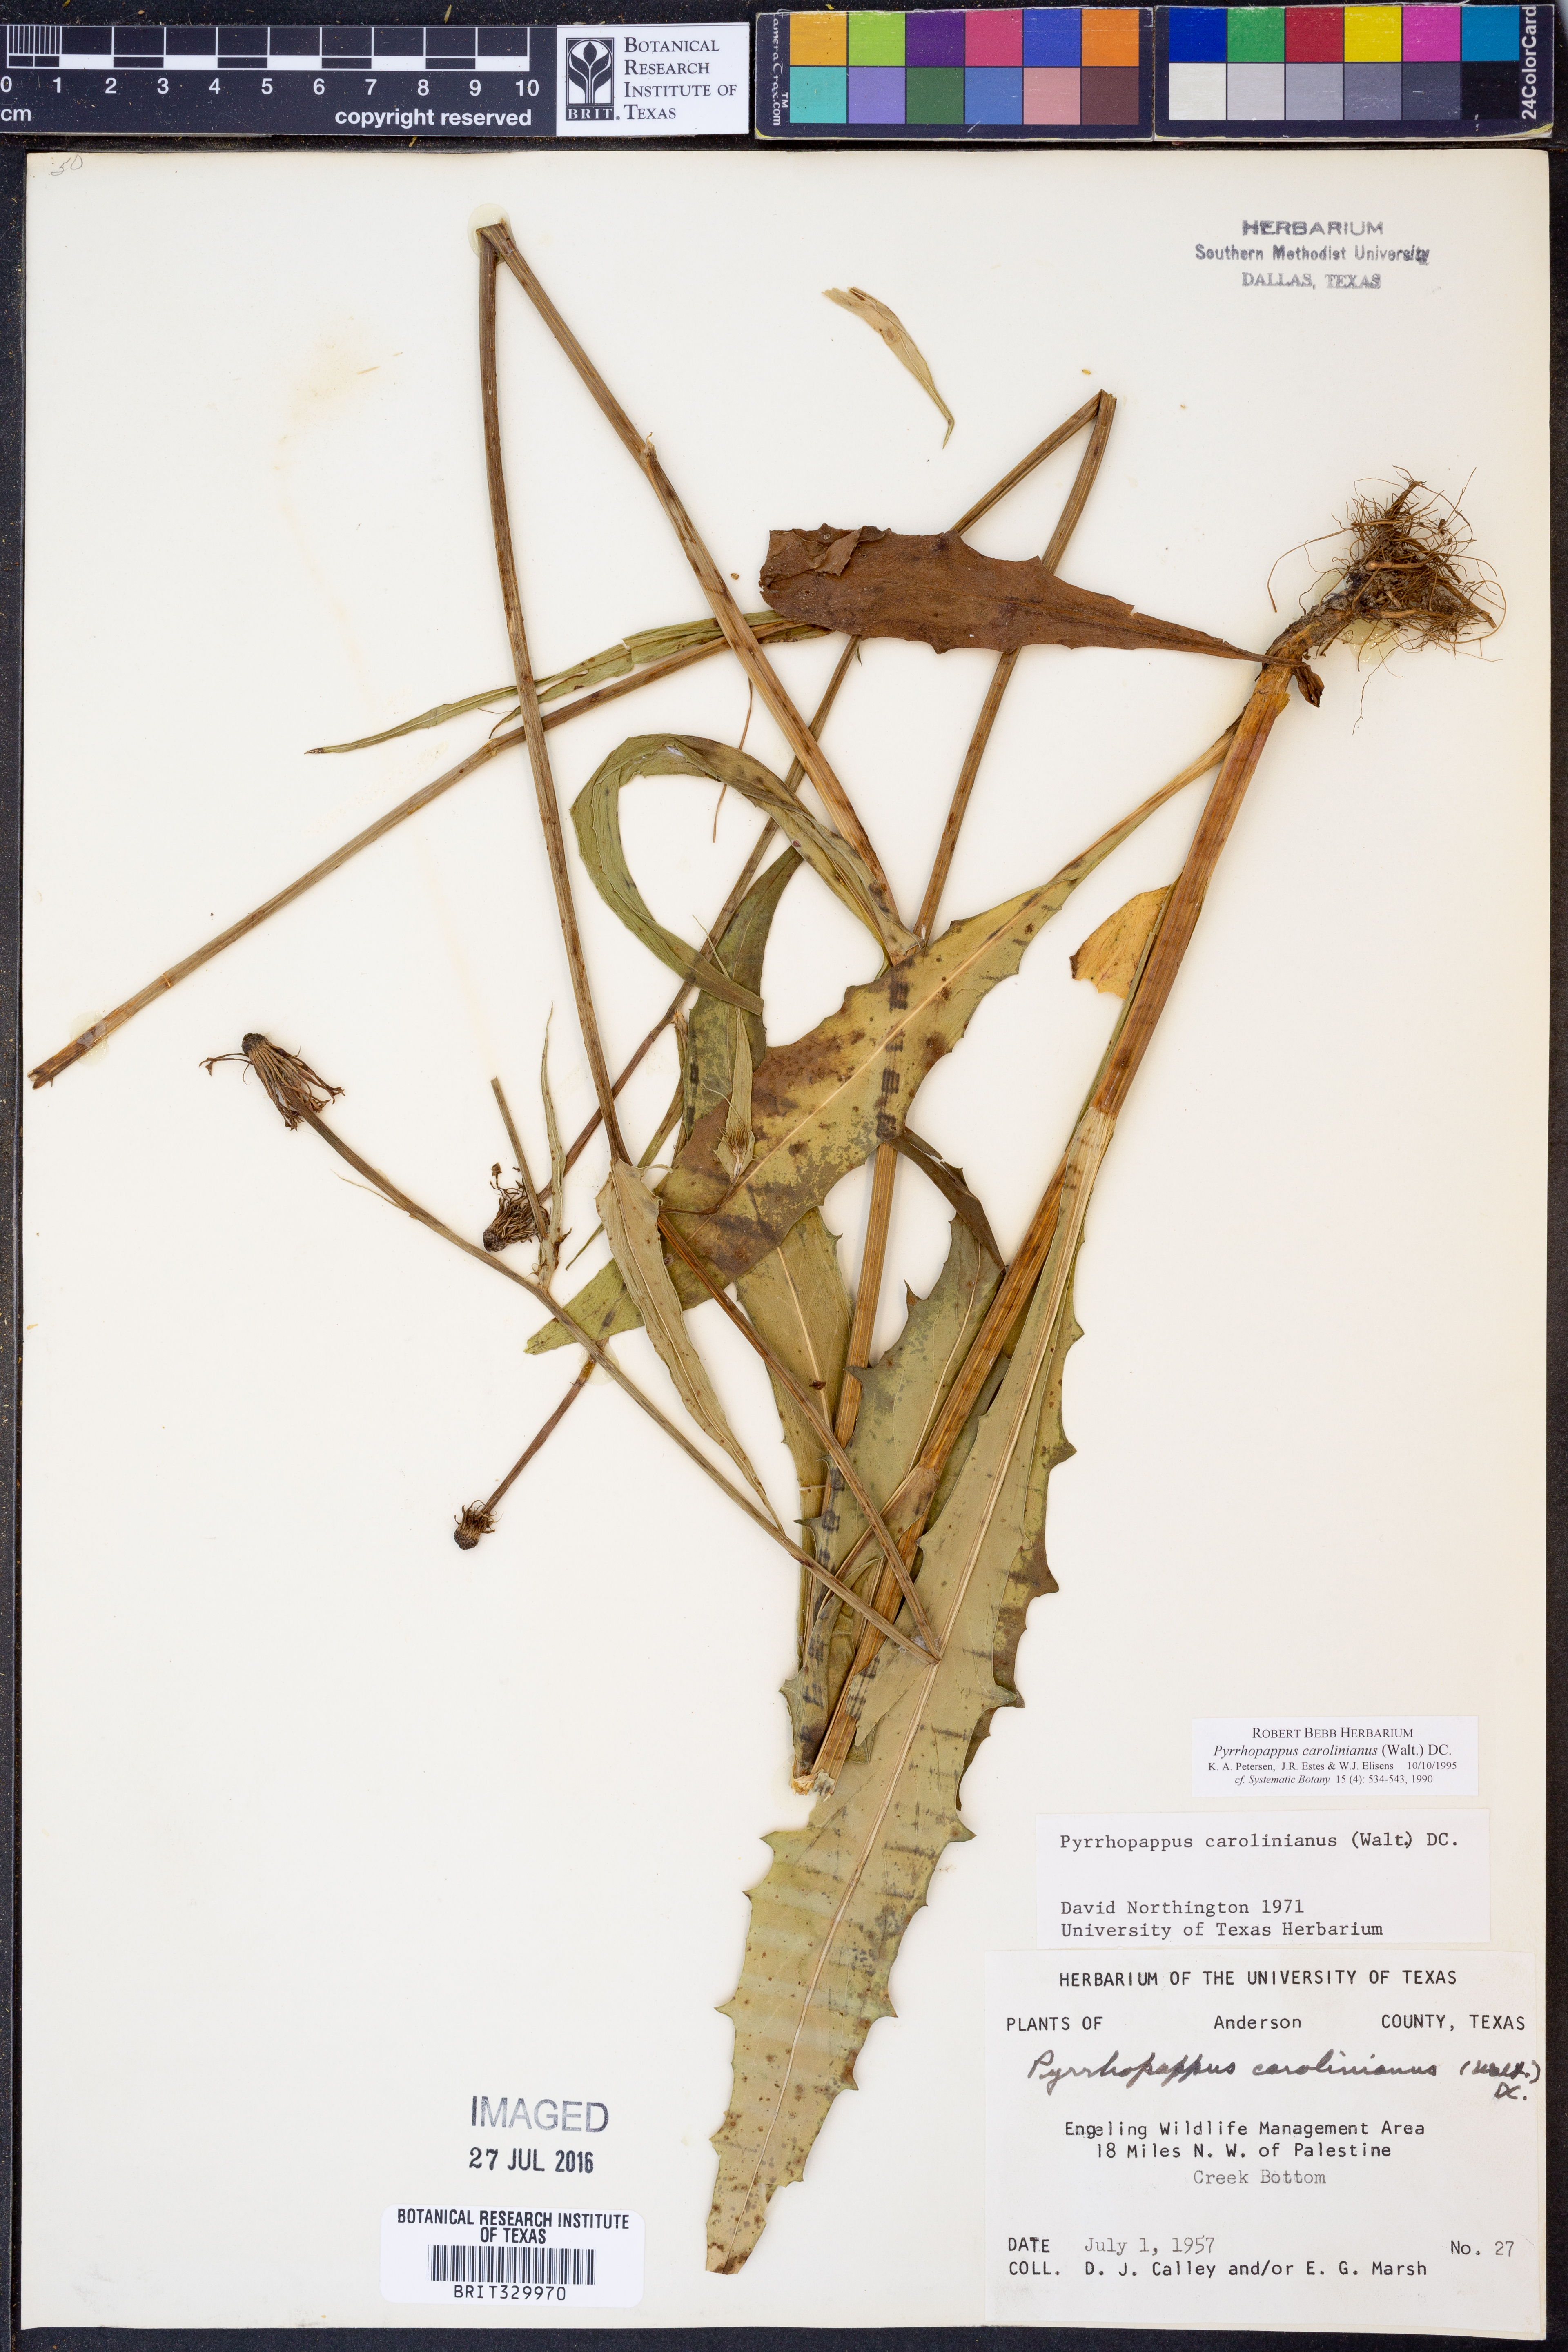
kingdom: Plantae
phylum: Tracheophyta
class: Magnoliopsida
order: Asterales
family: Asteraceae
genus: Pyrrhopappus
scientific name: Pyrrhopappus carolinianus
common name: Carolina desert-chicory
